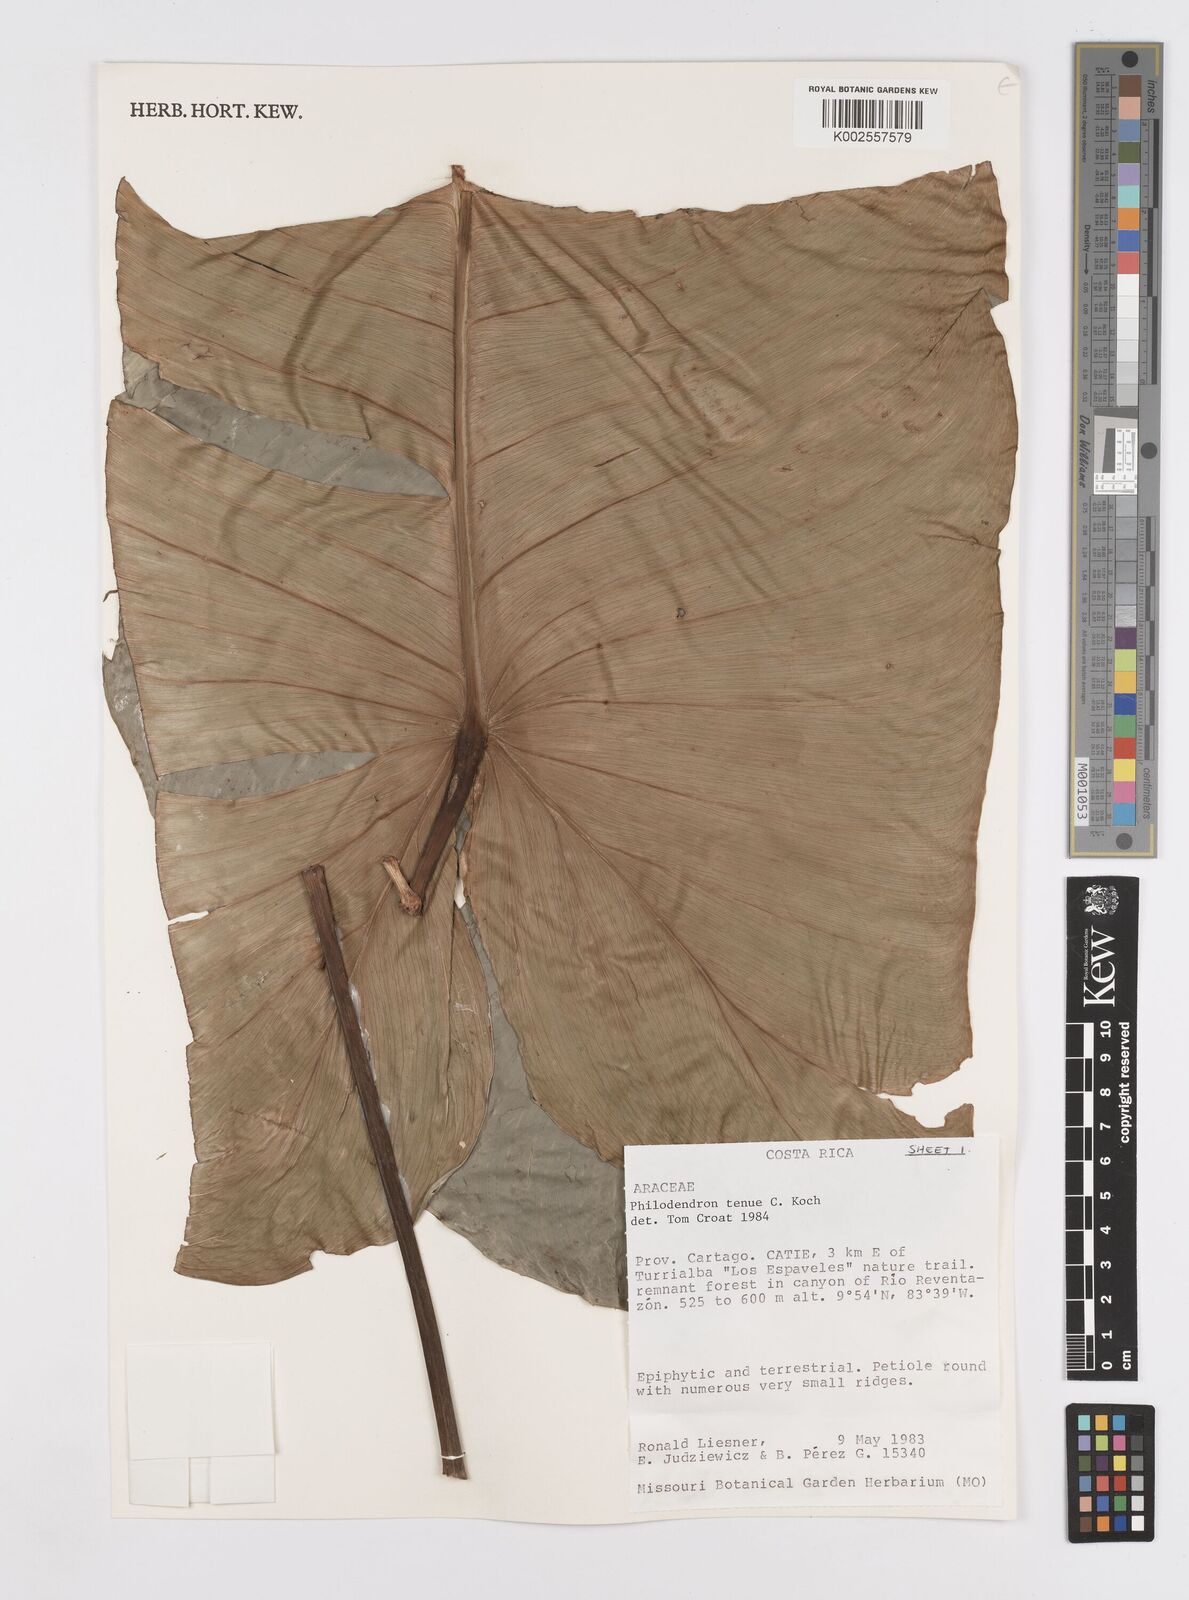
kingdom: Plantae
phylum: Tracheophyta
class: Liliopsida
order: Alismatales
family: Araceae
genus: Philodendron
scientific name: Philodendron tenue
